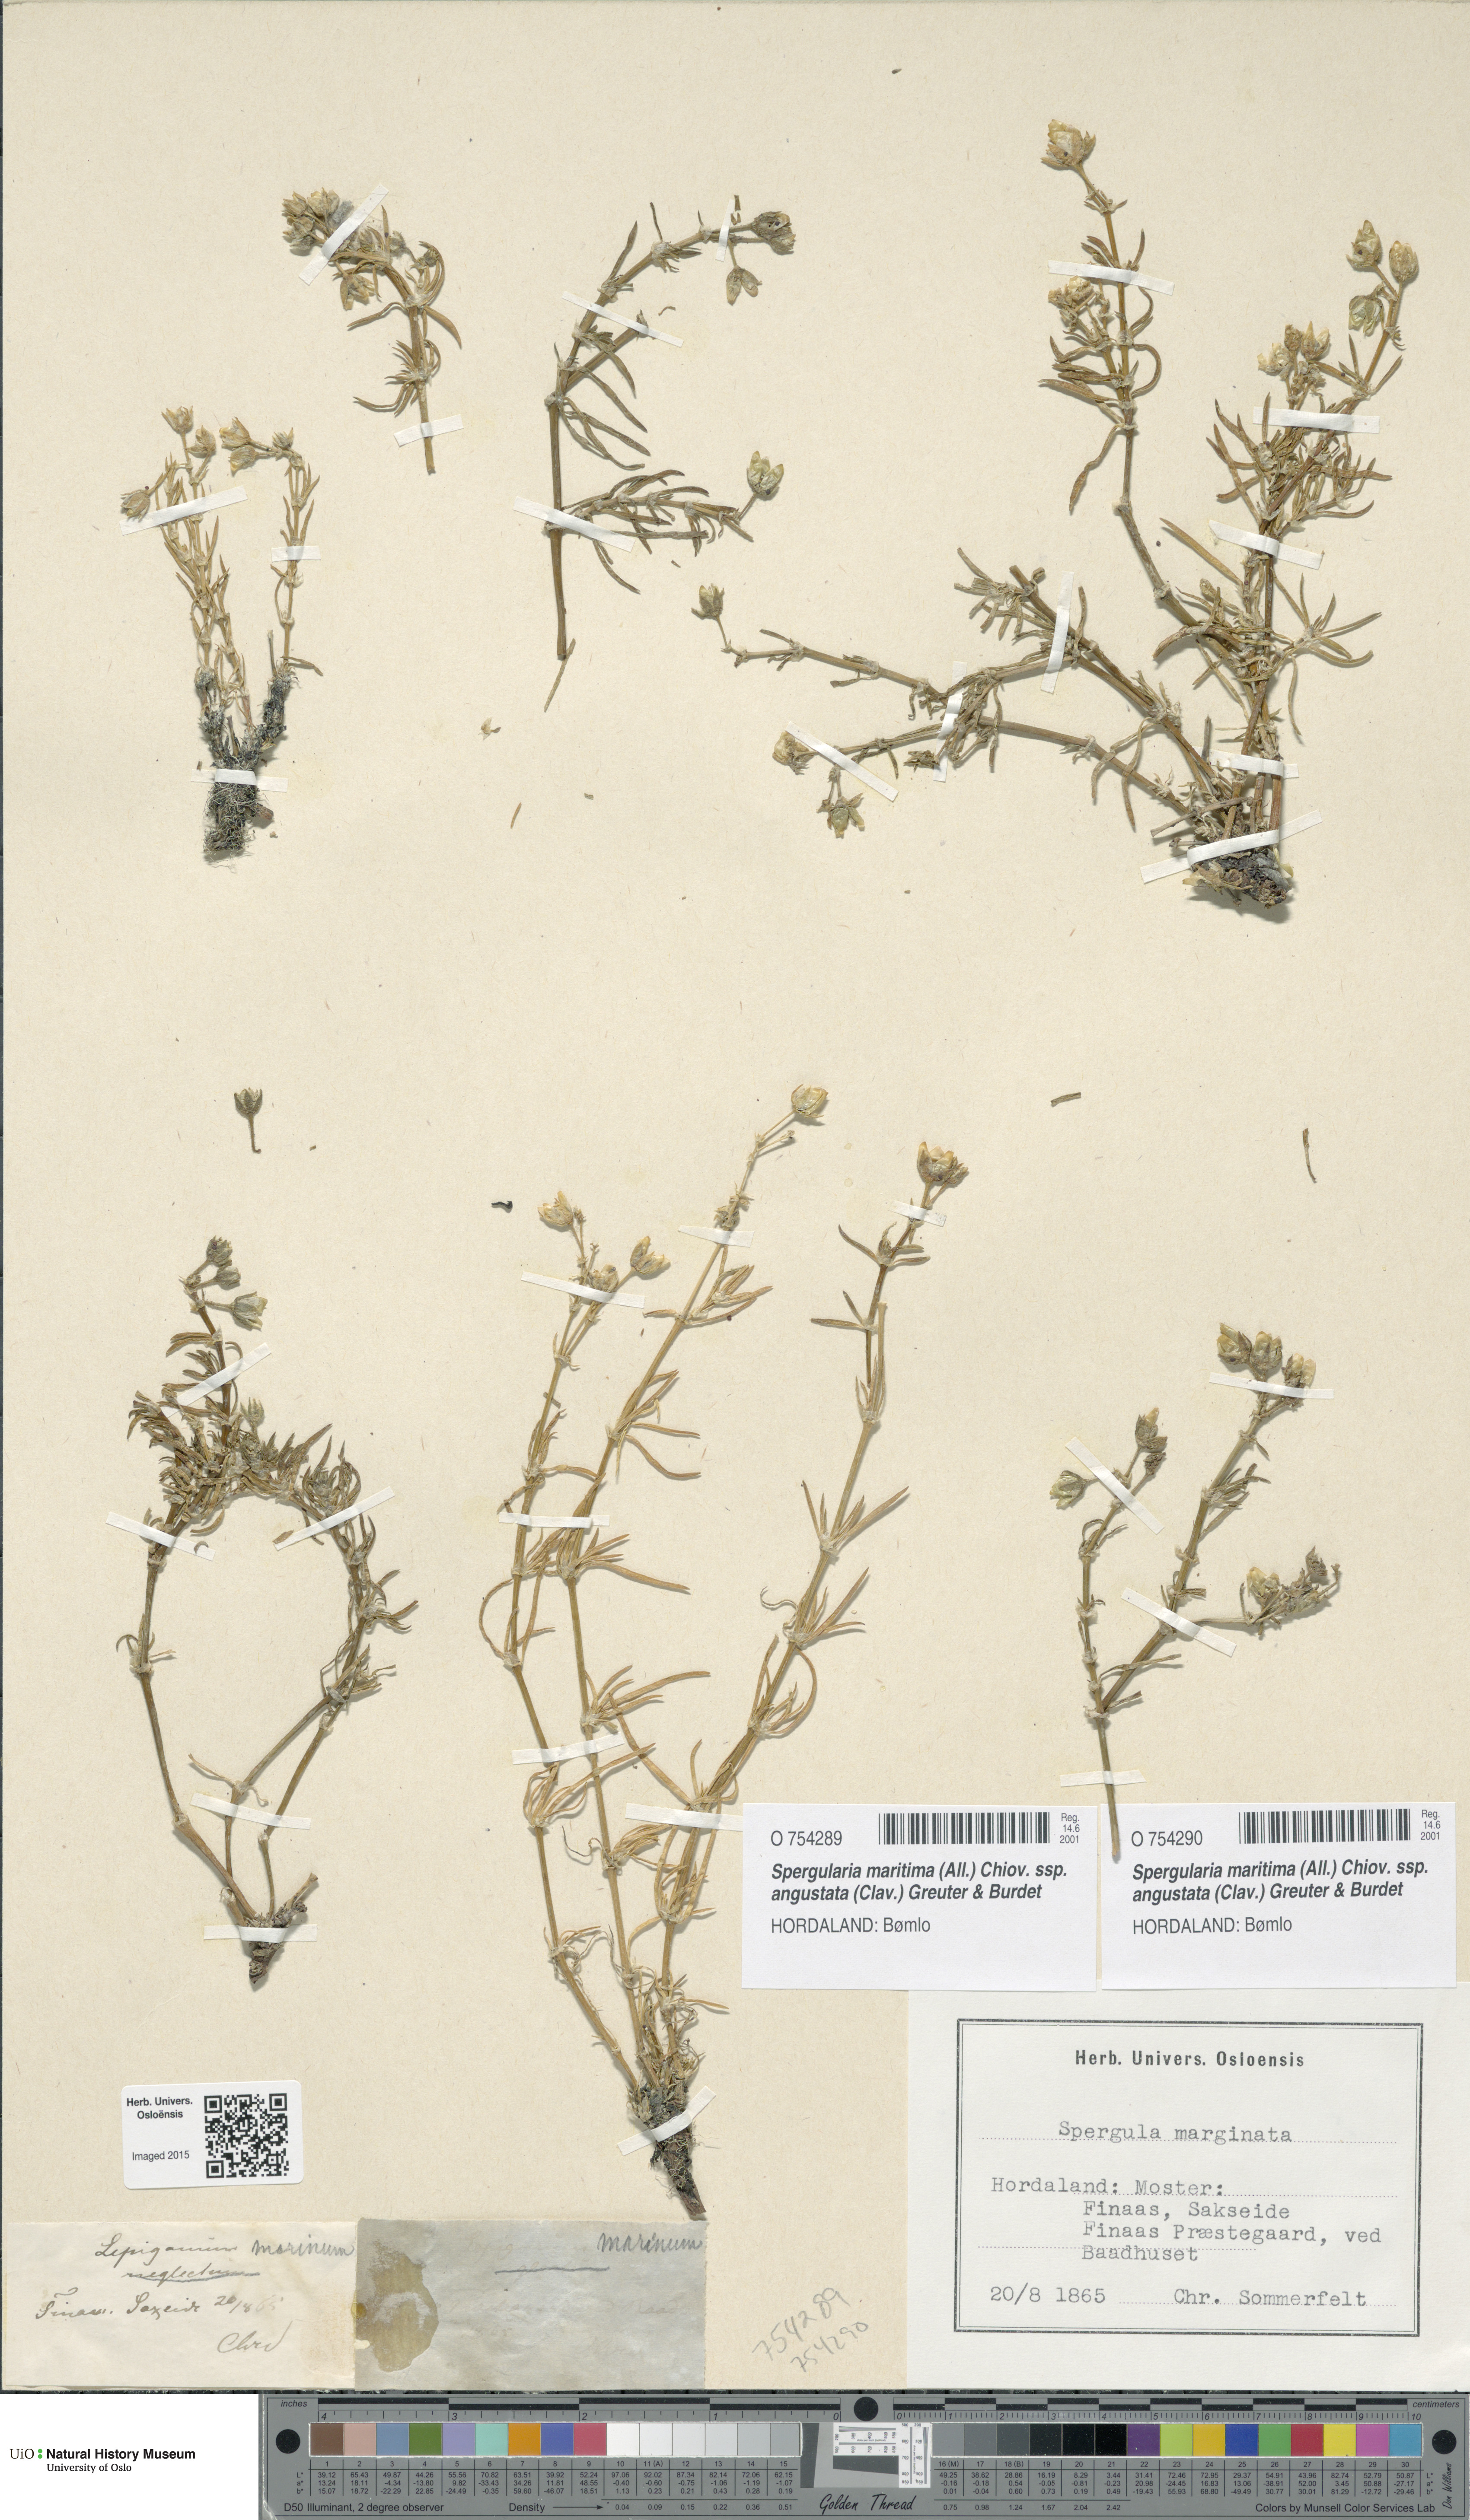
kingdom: Plantae
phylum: Tracheophyta
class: Magnoliopsida
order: Caryophyllales
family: Caryophyllaceae
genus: Spergularia
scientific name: Spergularia marina
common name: Lesser sea-spurrey
